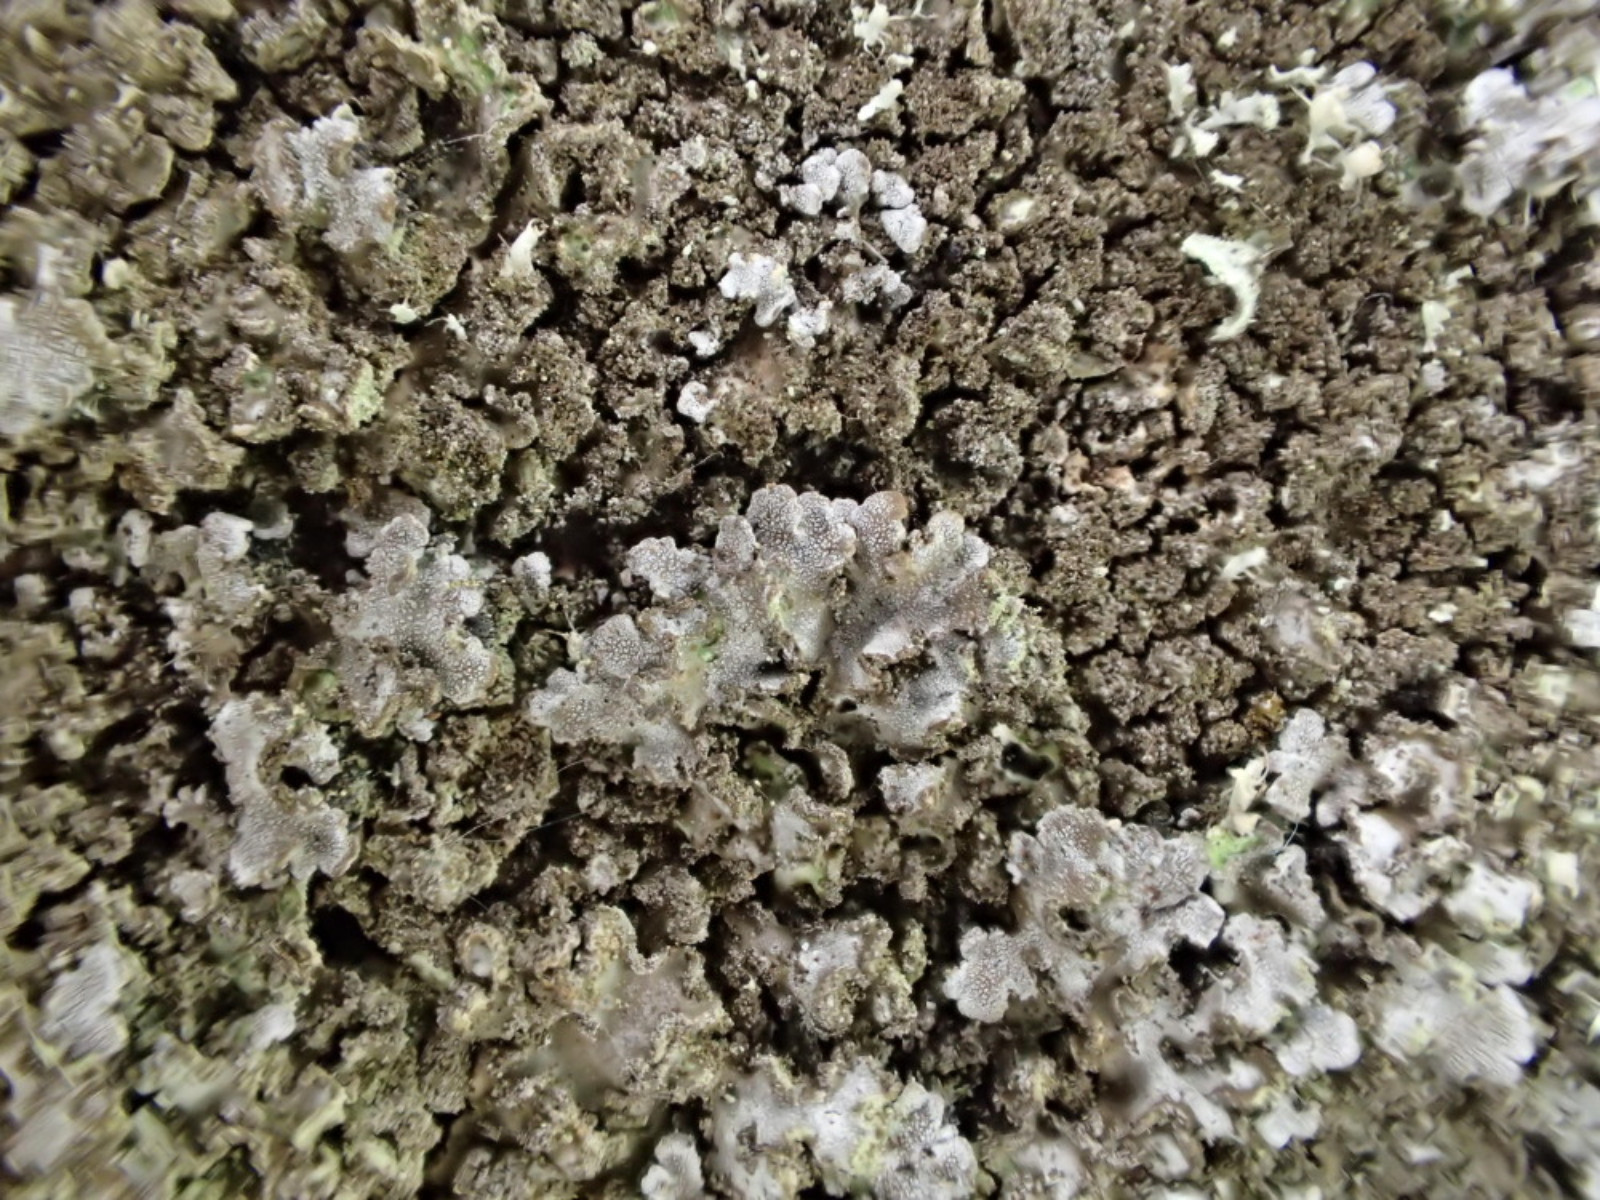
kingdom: Fungi
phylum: Ascomycota
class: Lecanoromycetes
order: Caliciales
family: Physciaceae
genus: Physconia
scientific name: Physconia perisidiosa
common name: liden dugrosetlav
